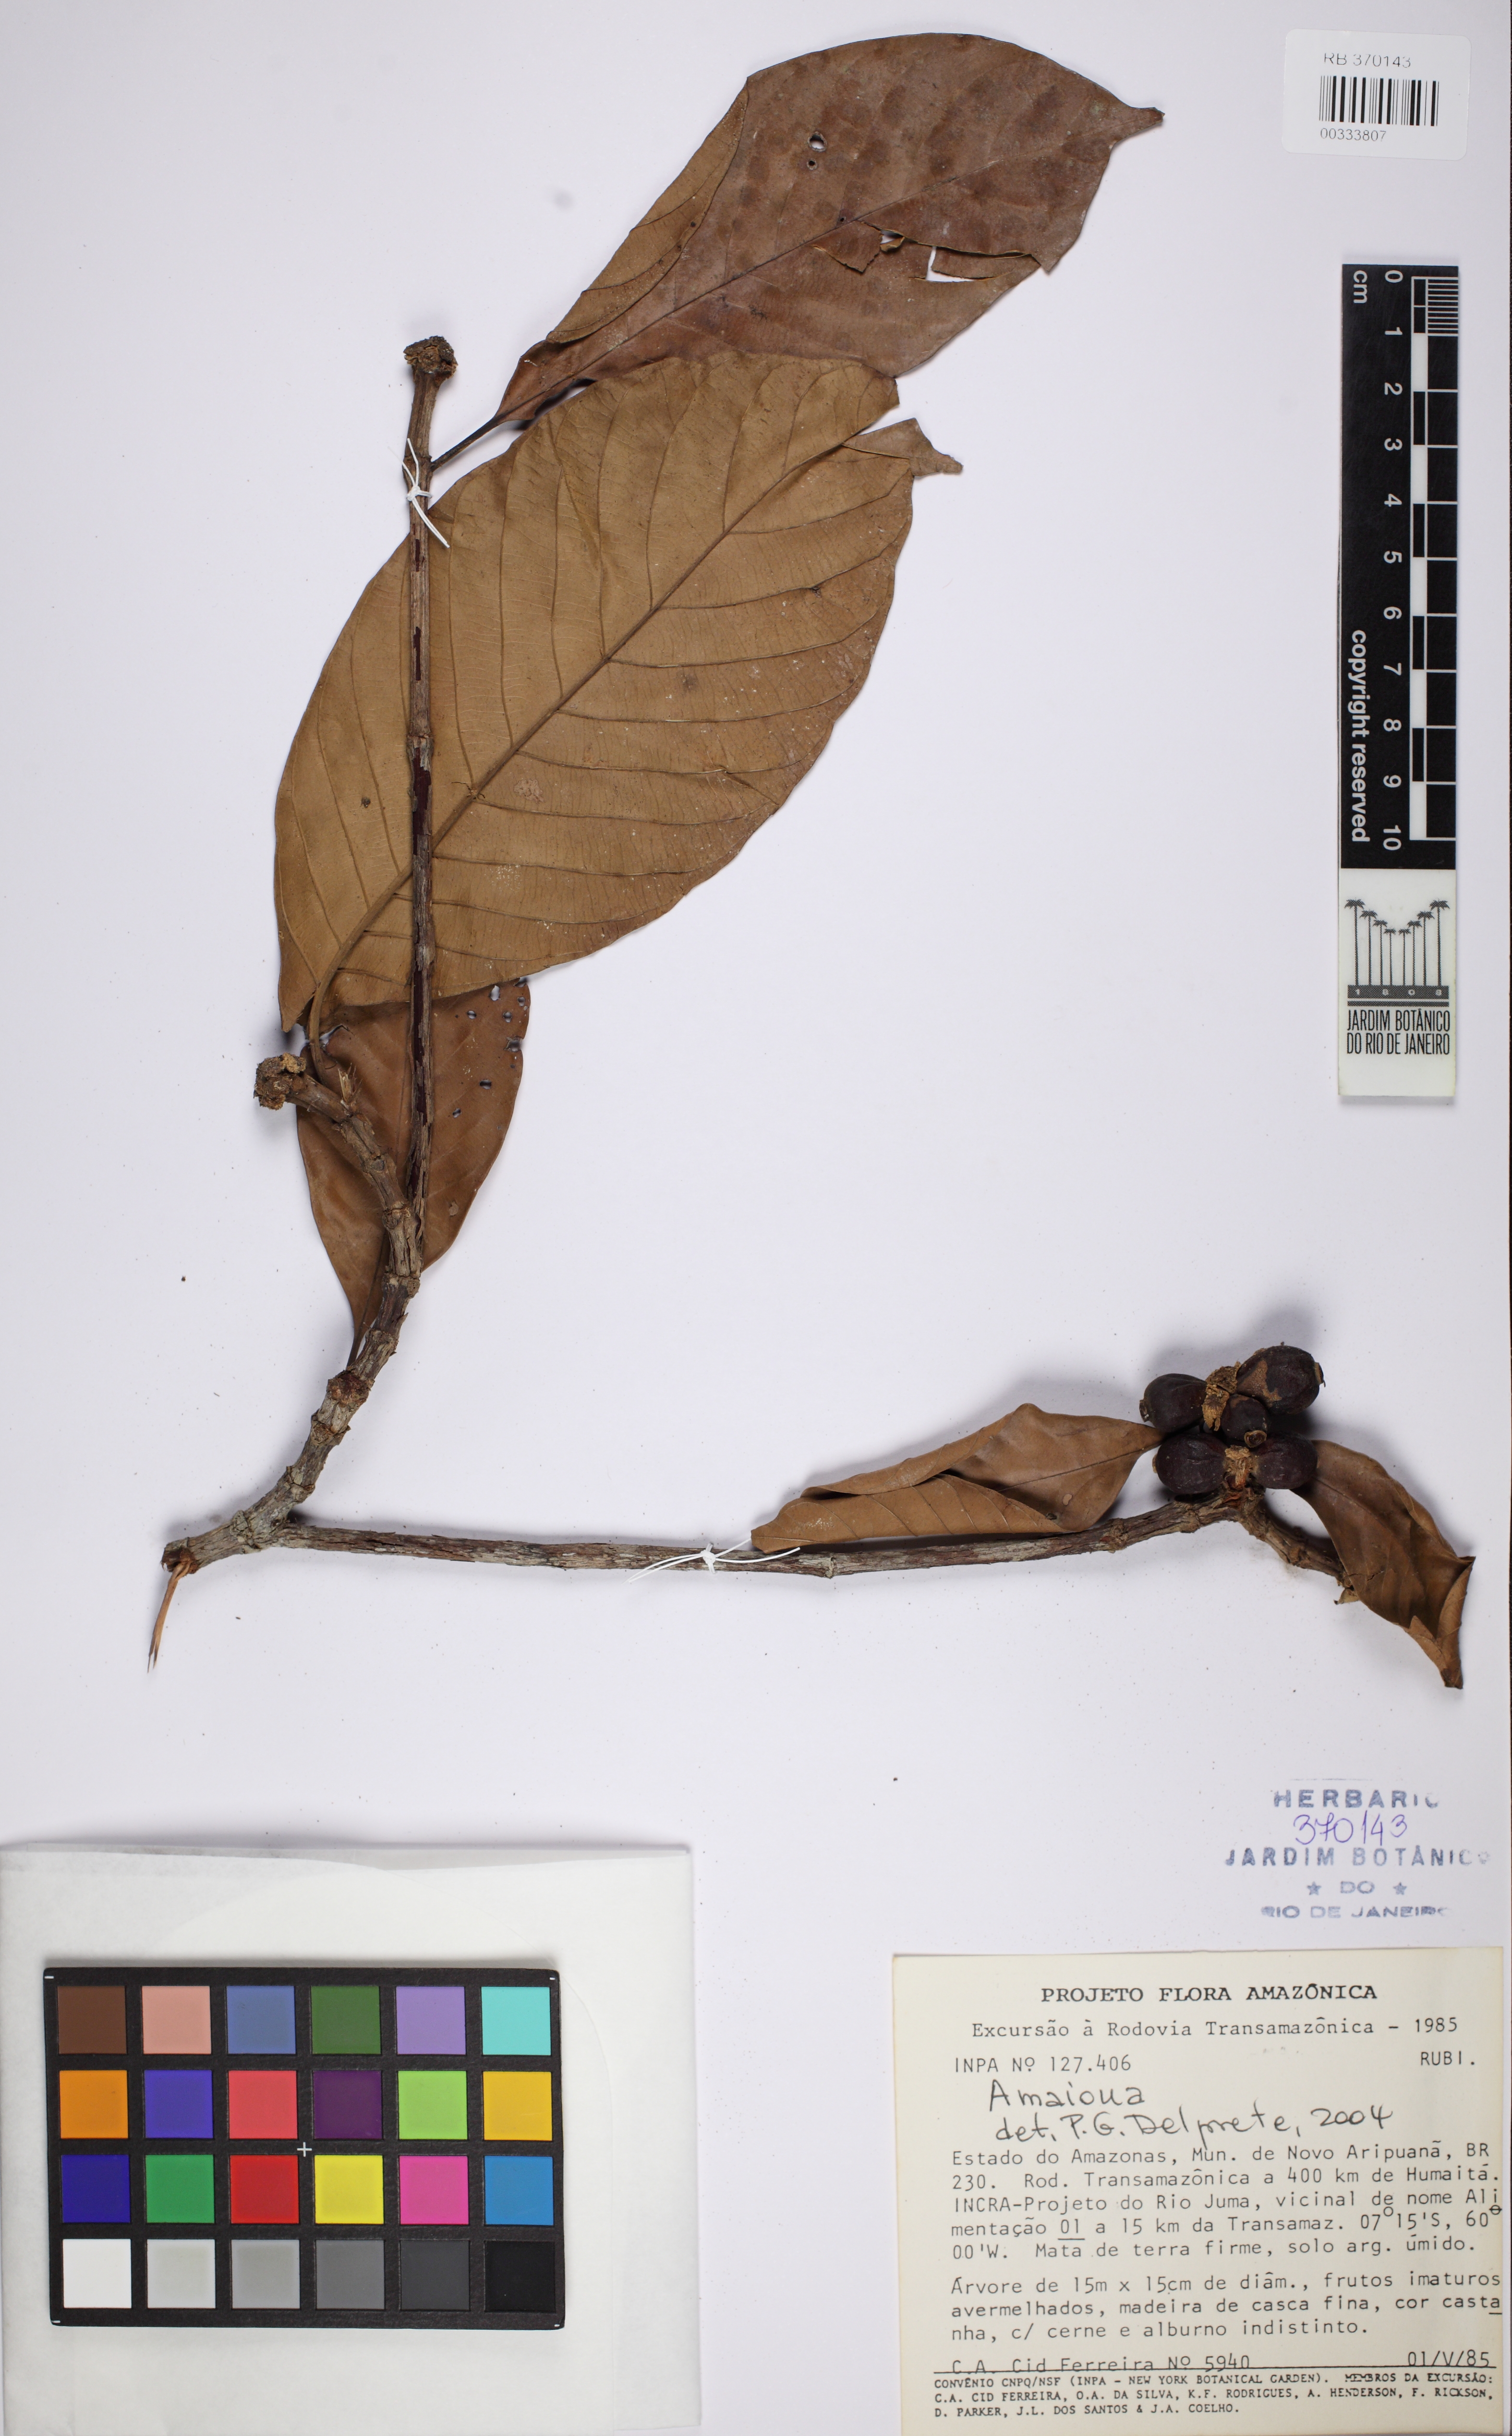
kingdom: Plantae
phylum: Tracheophyta
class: Magnoliopsida
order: Gentianales
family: Rubiaceae
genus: Duroia
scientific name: Duroia duckei
